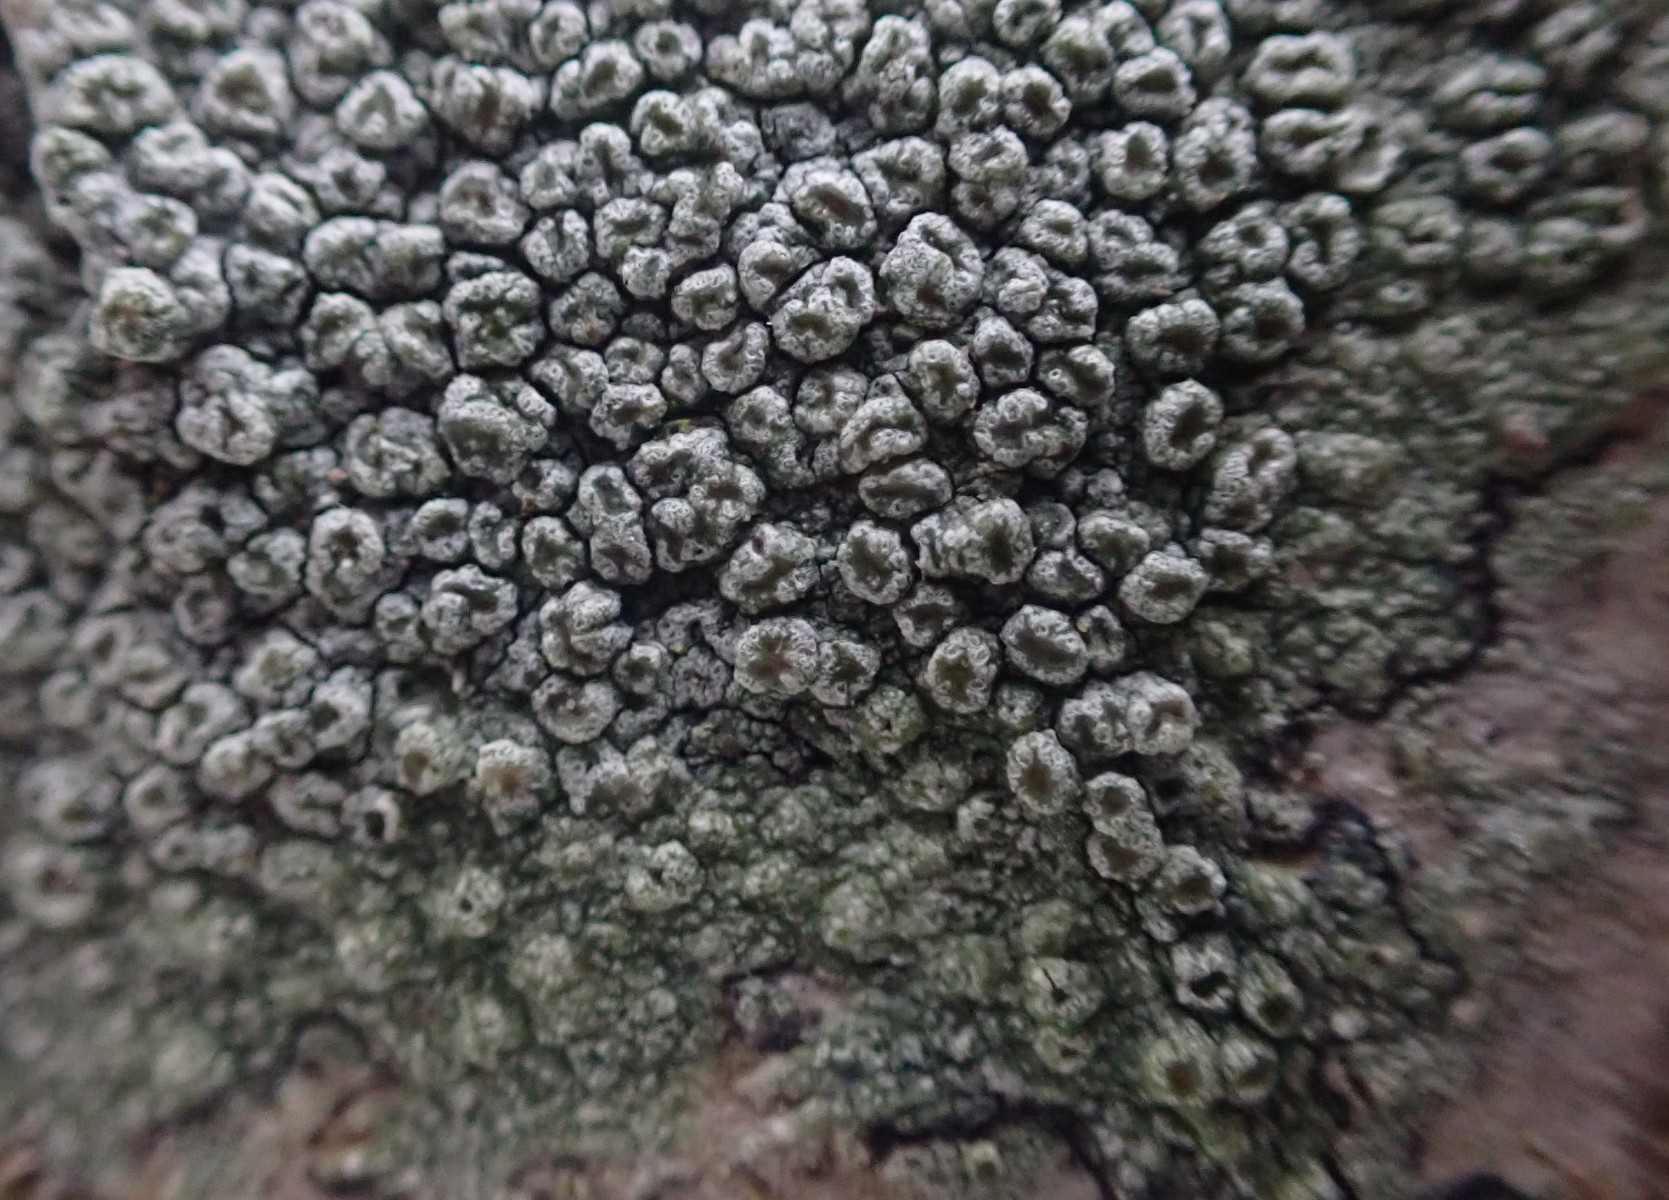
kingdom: Fungi
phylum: Ascomycota
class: Lecanoromycetes
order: Pertusariales
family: Pertusariaceae
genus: Pertusaria
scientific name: Pertusaria hymenea
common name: åben prikvortelav
